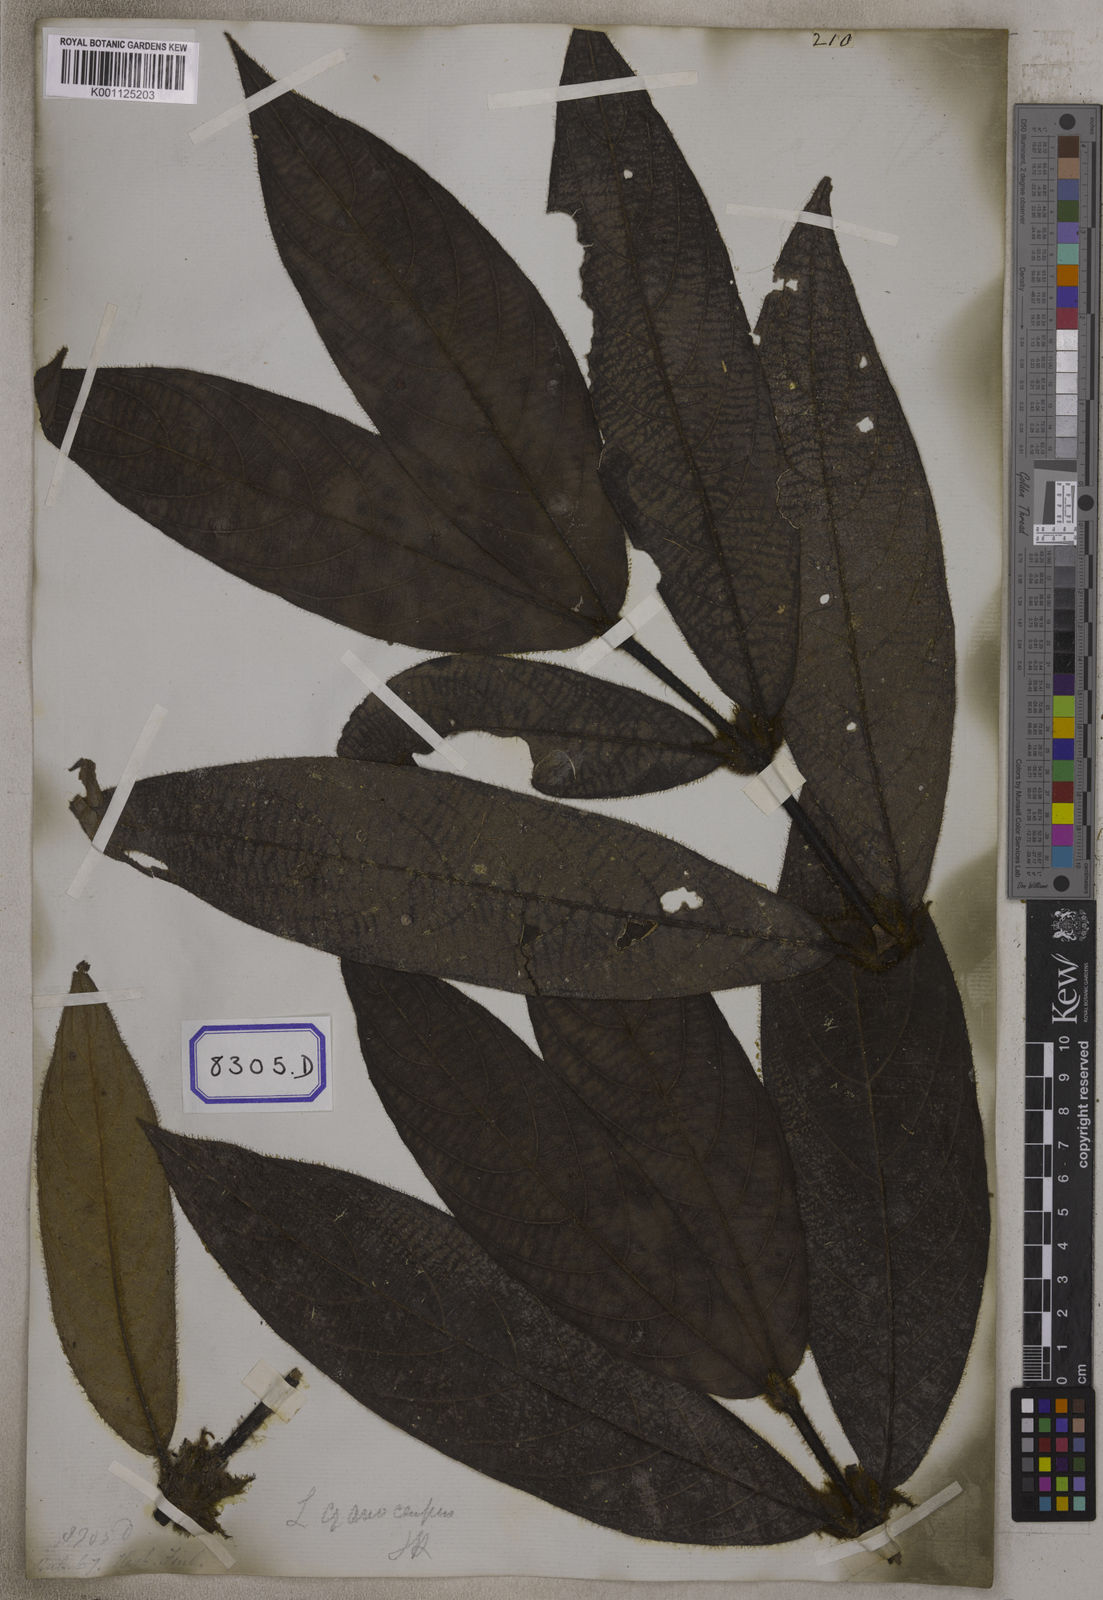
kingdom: Plantae
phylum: Tracheophyta
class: Magnoliopsida
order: Gentianales
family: Rubiaceae
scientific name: Rubiaceae
